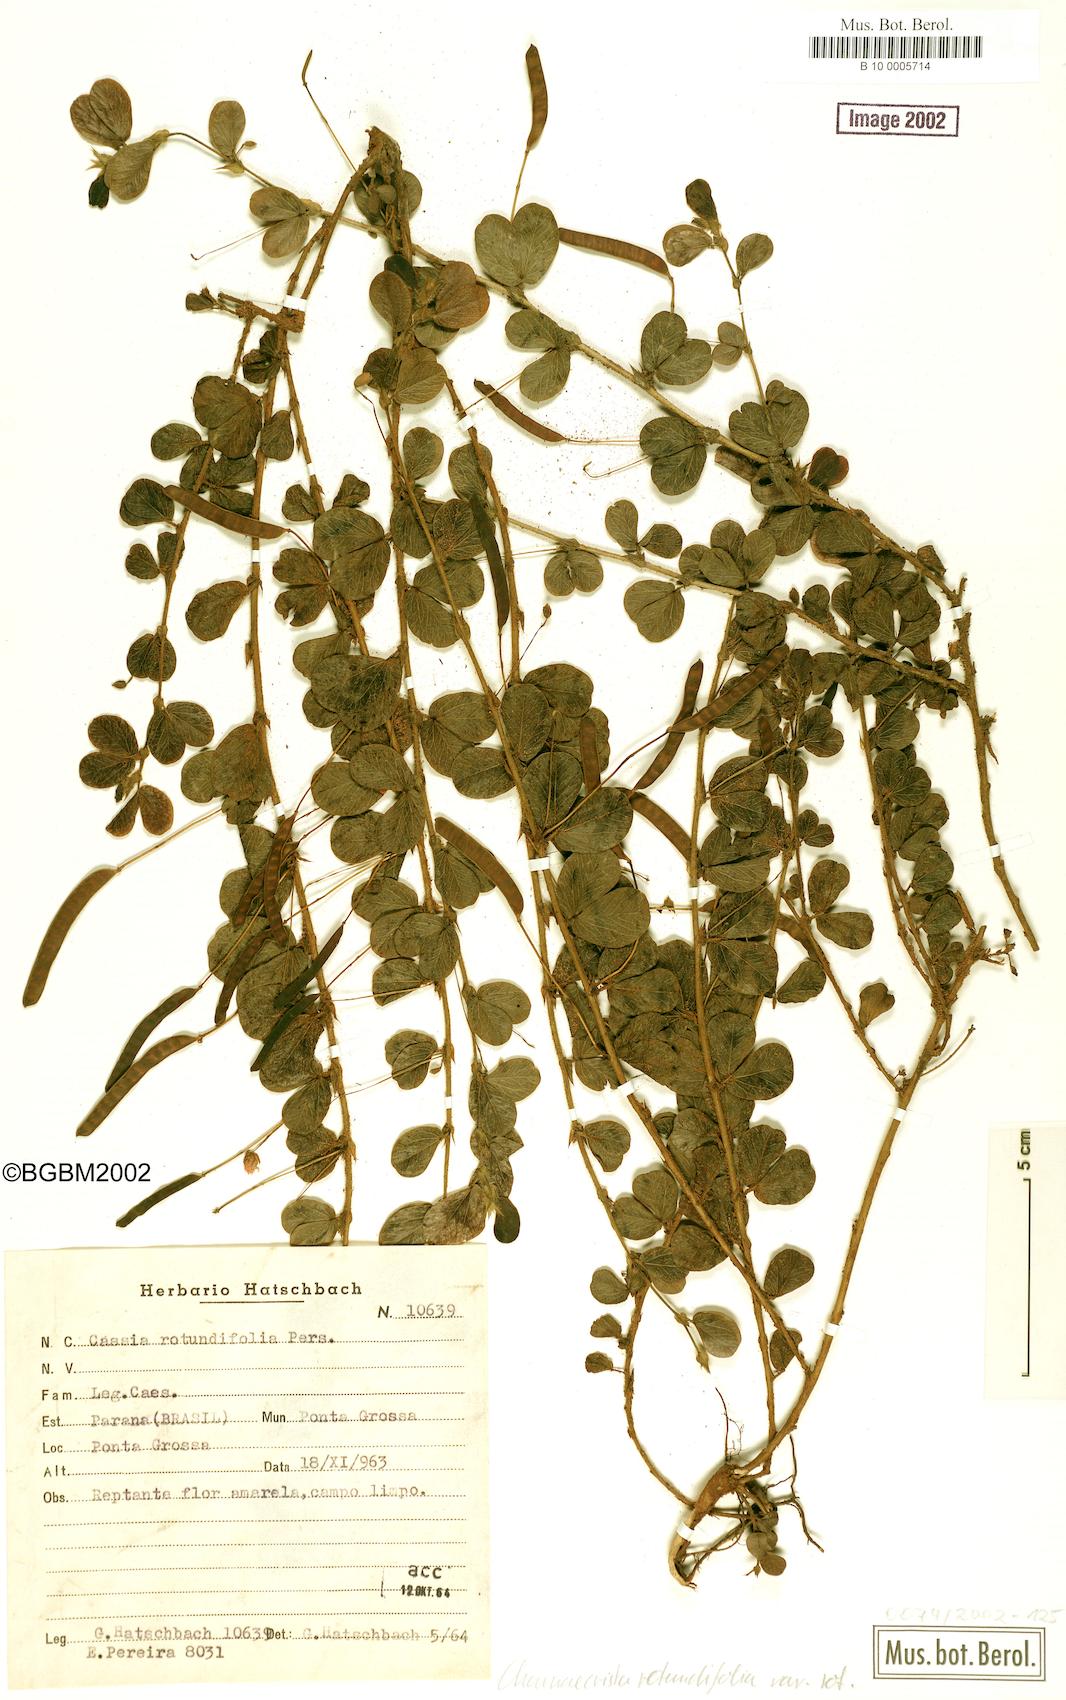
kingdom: Plantae
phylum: Tracheophyta
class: Magnoliopsida
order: Fabales
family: Fabaceae
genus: Chamaecrista
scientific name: Chamaecrista rotundifolia
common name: Round-leaf cassia
